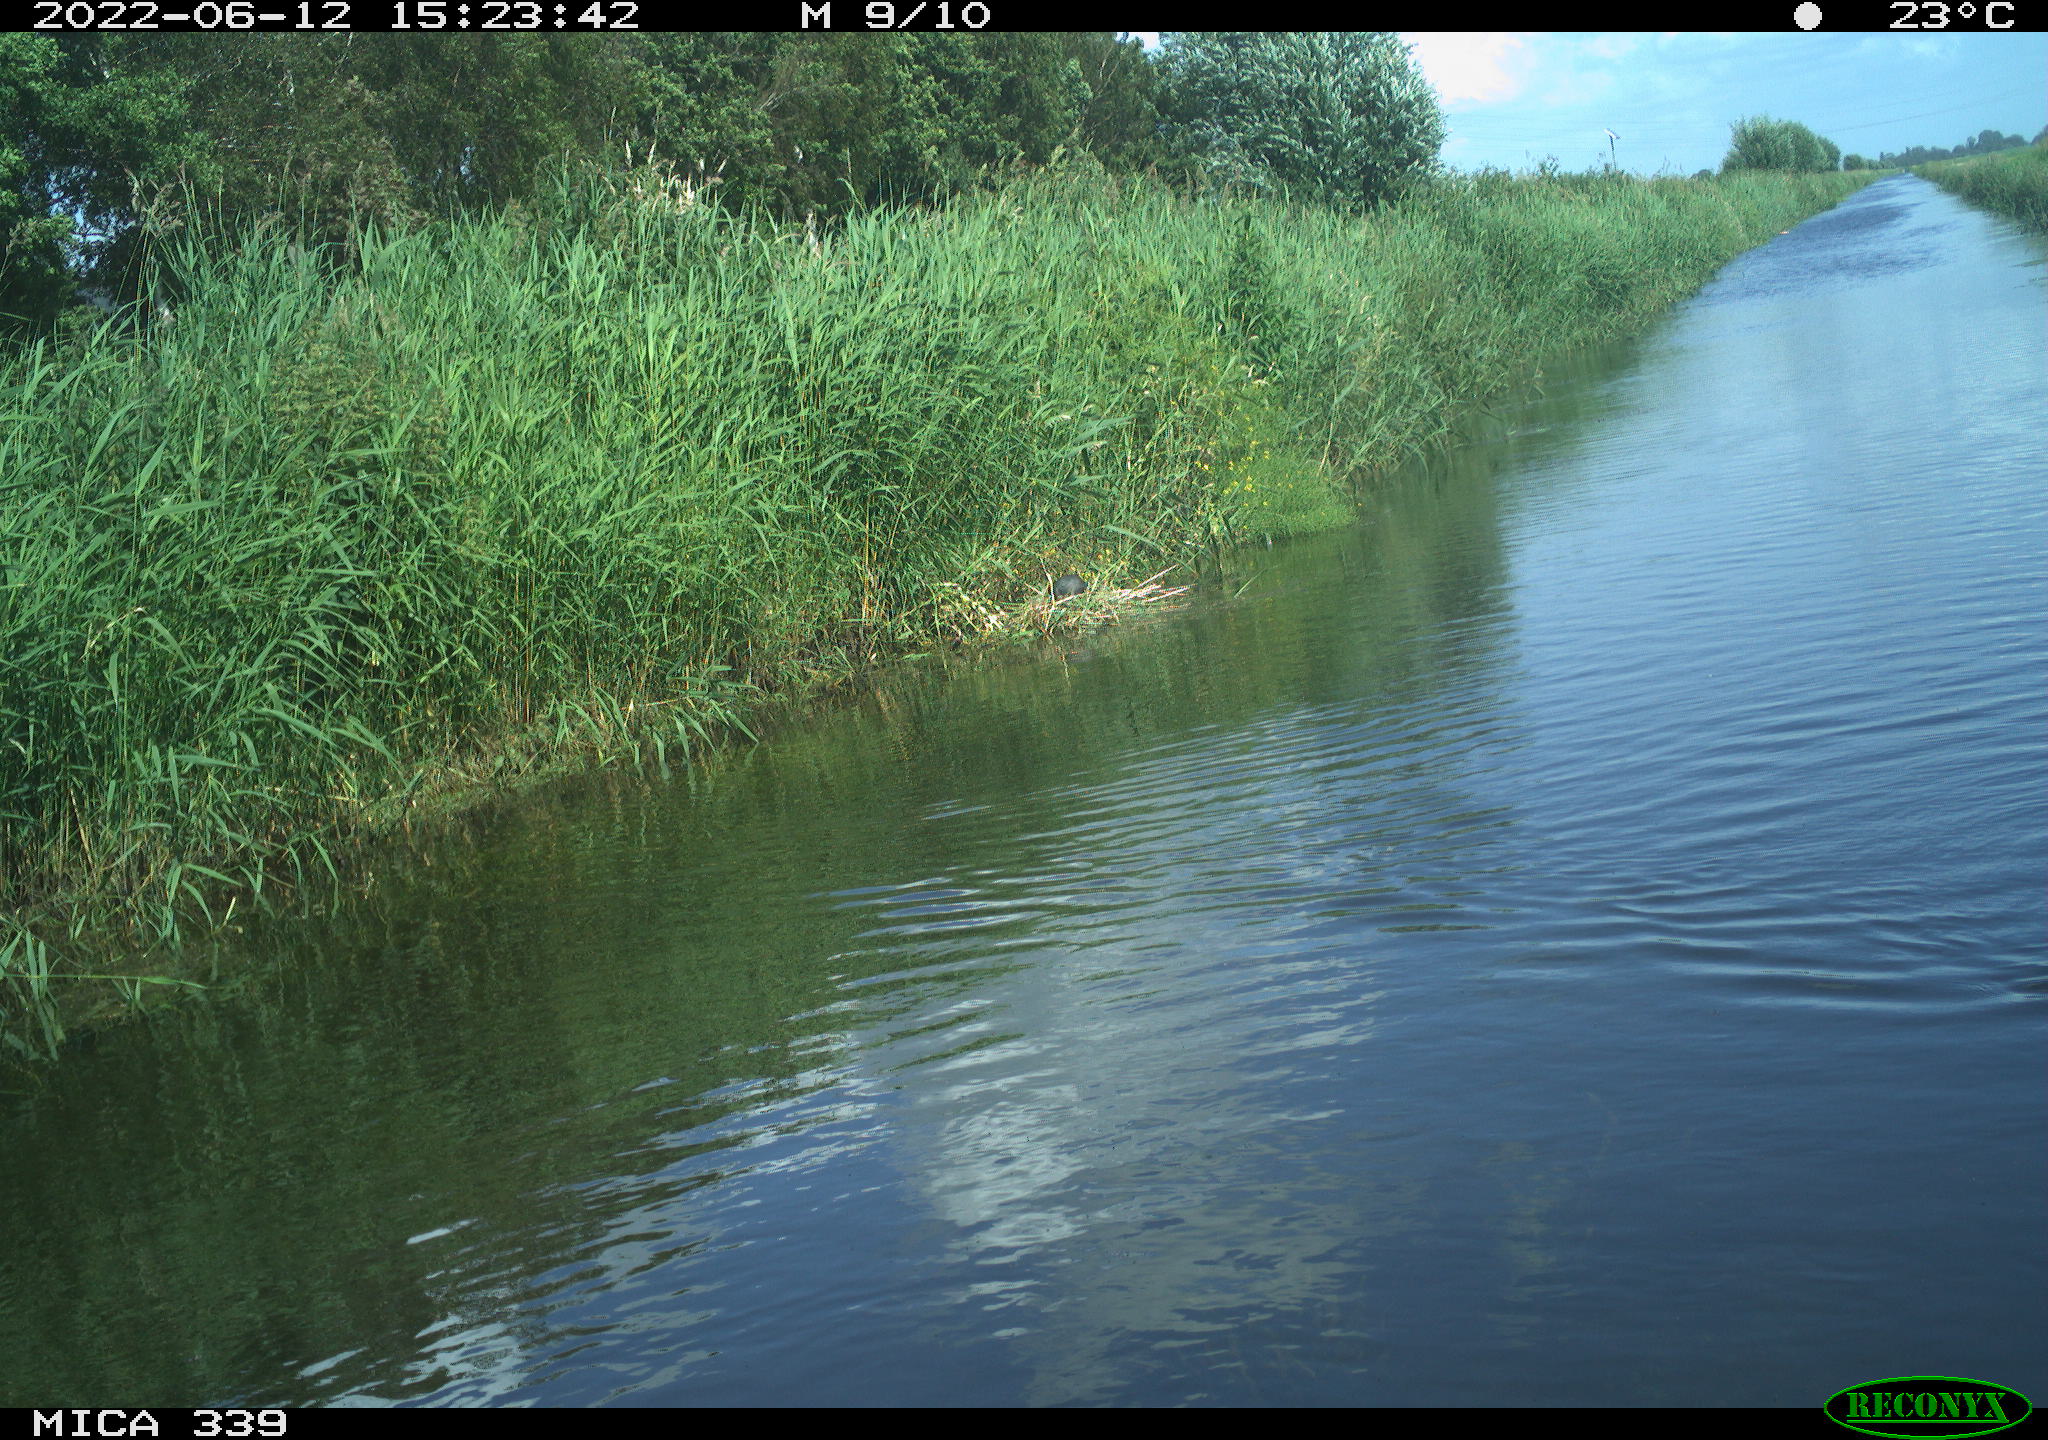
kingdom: Animalia
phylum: Chordata
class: Aves
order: Gruiformes
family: Rallidae
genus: Fulica
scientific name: Fulica atra
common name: Eurasian coot
